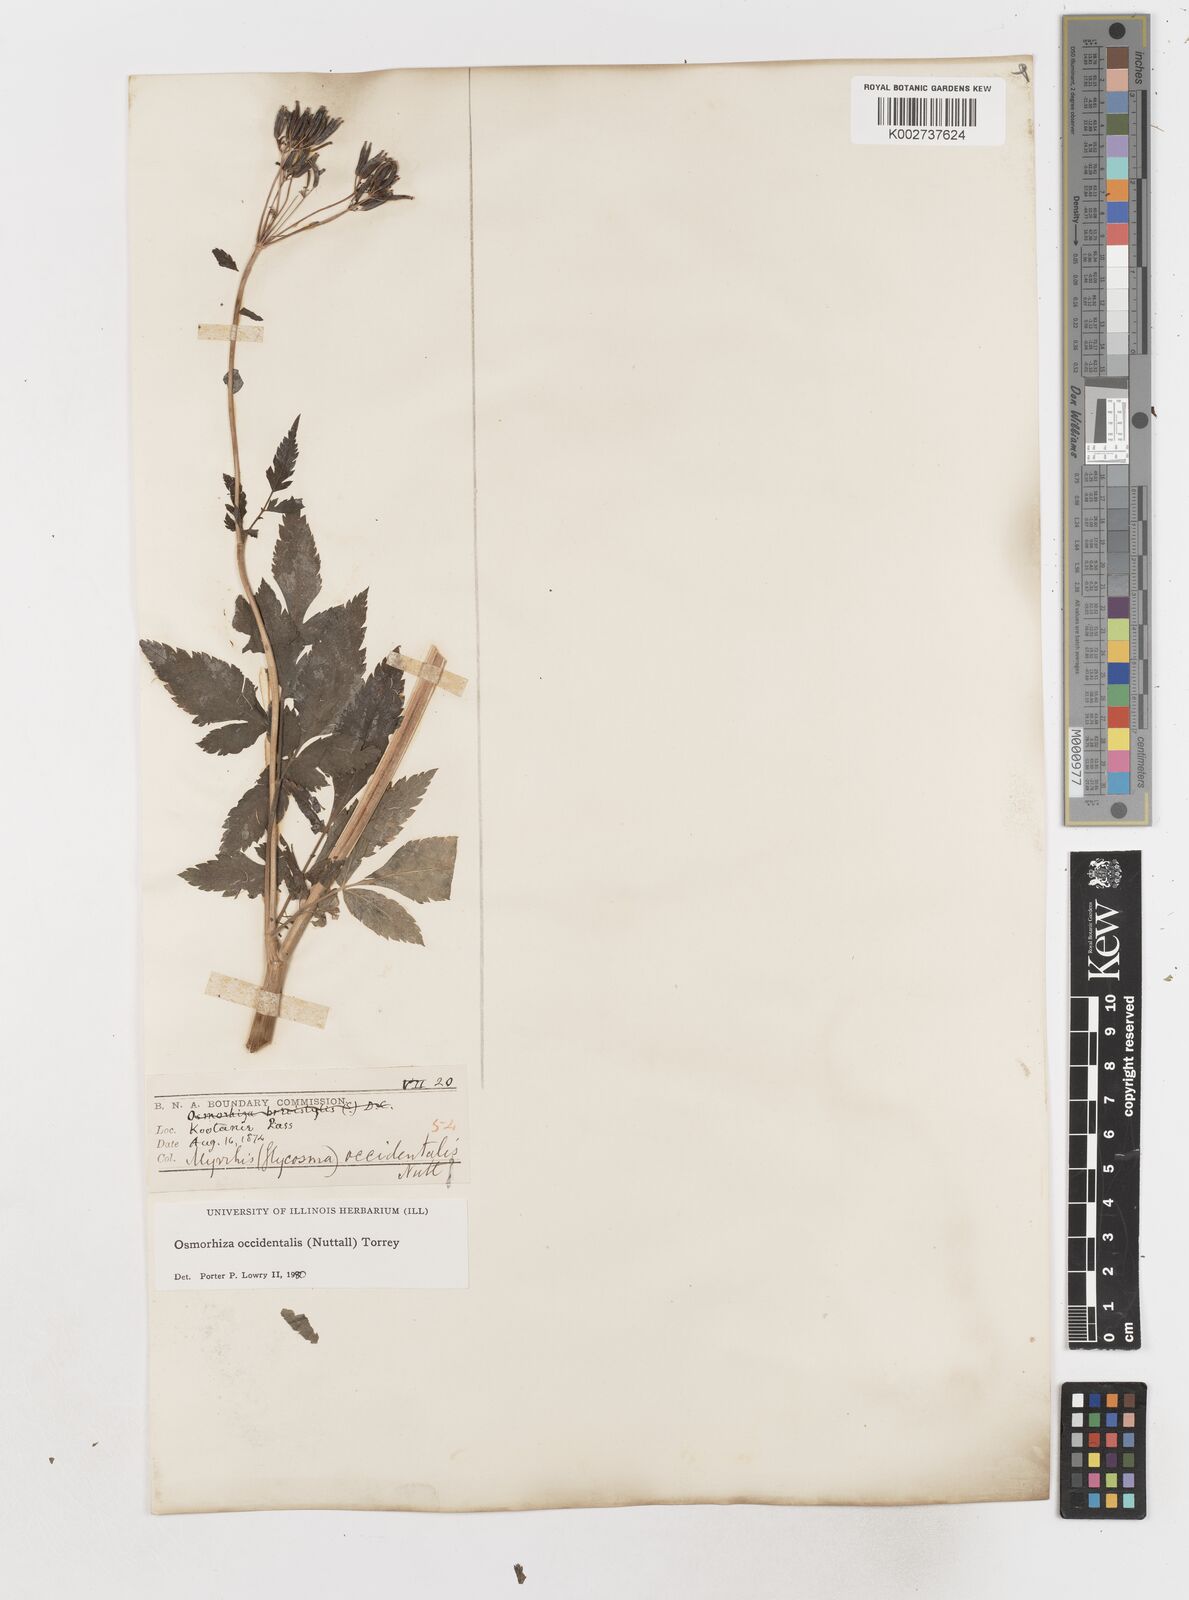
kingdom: Plantae
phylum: Tracheophyta
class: Magnoliopsida
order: Apiales
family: Apiaceae
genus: Osmorhiza
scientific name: Osmorhiza occidentalis
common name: Western sweet cicely
